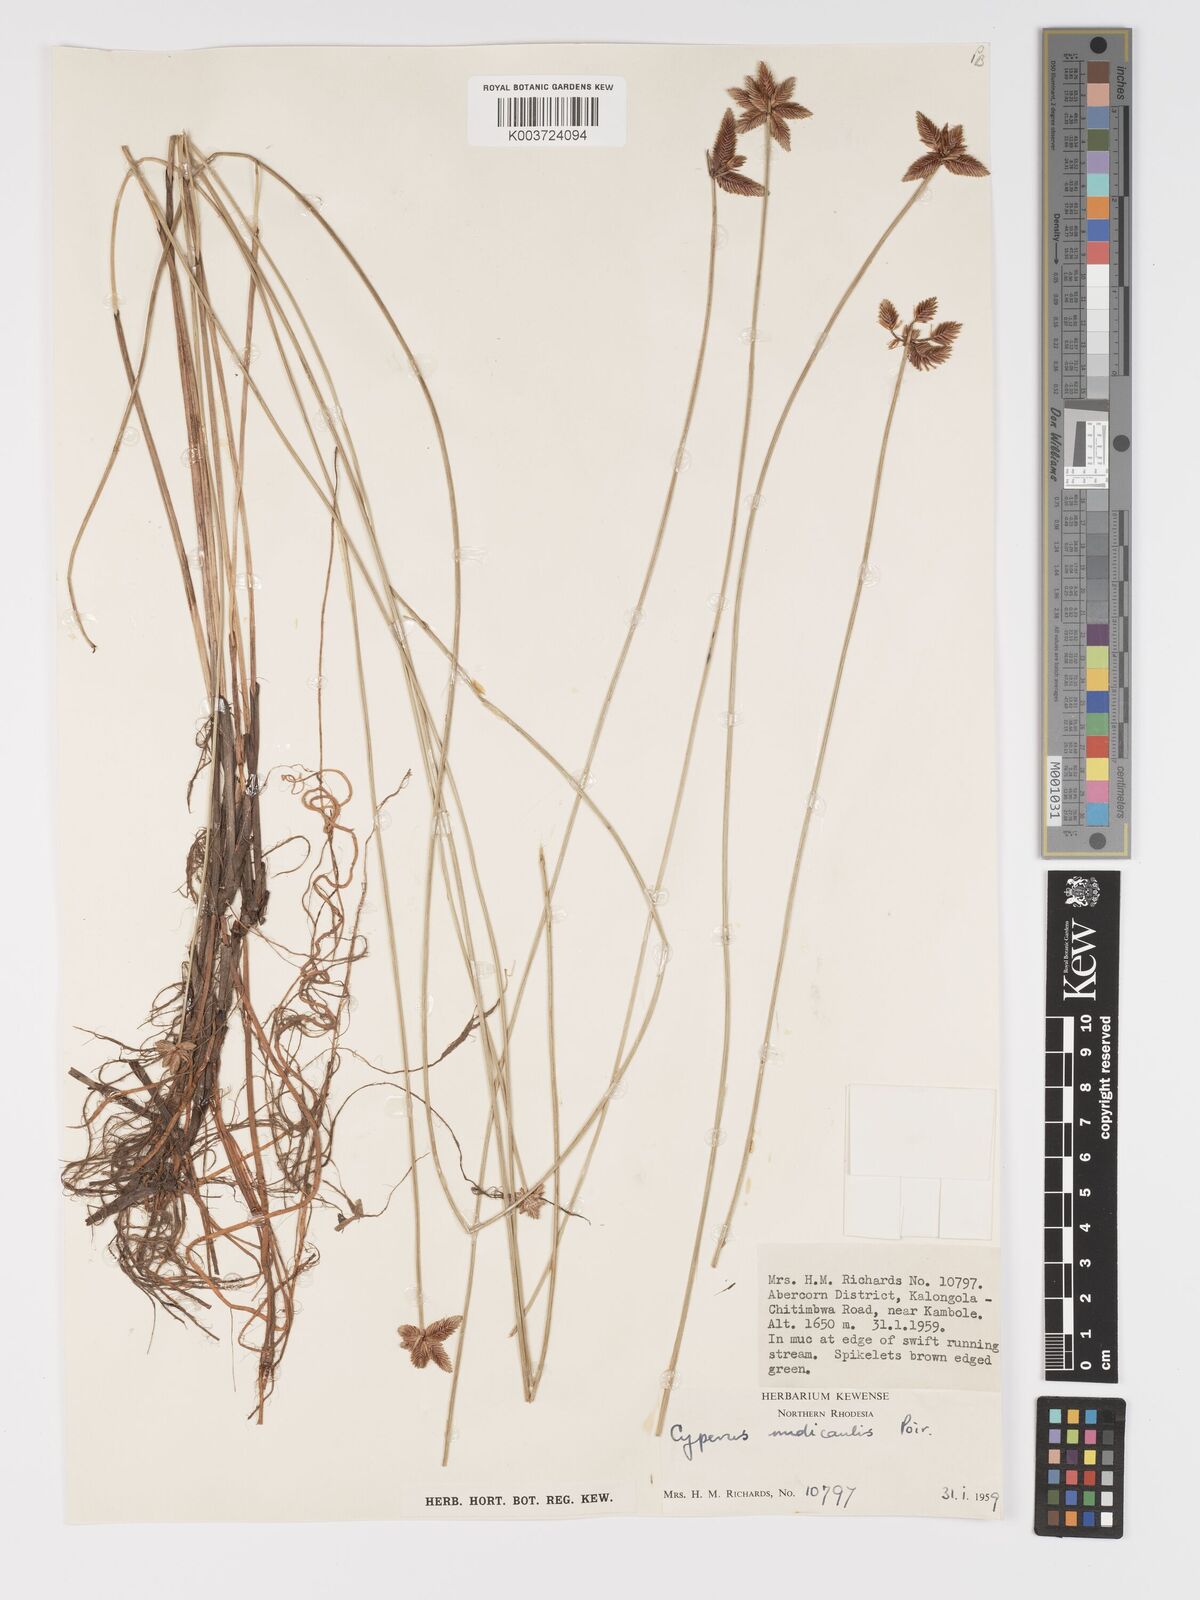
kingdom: Plantae
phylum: Tracheophyta
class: Liliopsida
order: Poales
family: Cyperaceae
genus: Cyperus
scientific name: Cyperus compressus
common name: Poorland flatsedge
